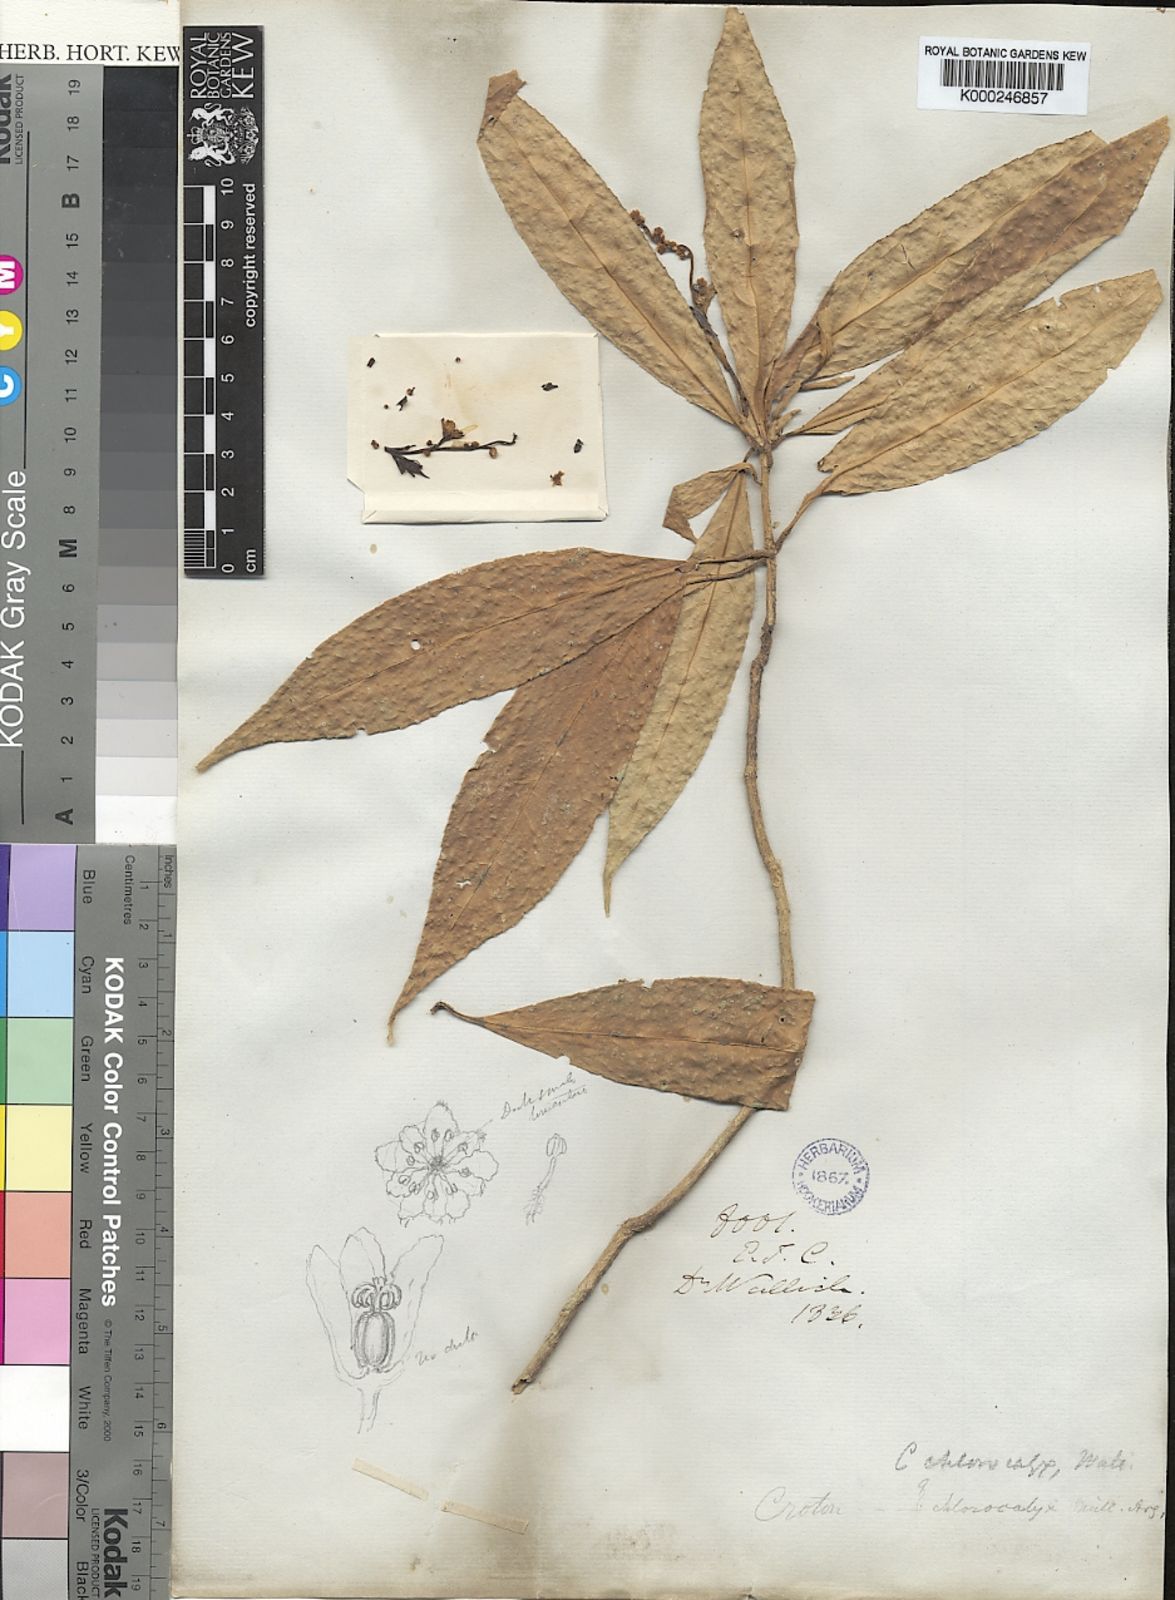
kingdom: Plantae
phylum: Tracheophyta
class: Magnoliopsida
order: Malpighiales
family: Euphorbiaceae
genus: Croton
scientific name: Croton
